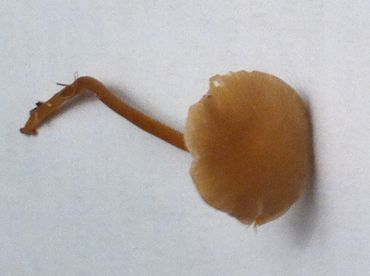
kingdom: Fungi
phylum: Basidiomycota
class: Agaricomycetes
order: Agaricales
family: Marasmiaceae
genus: Baeospora
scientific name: Baeospora myosura
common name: koglebruskhat
